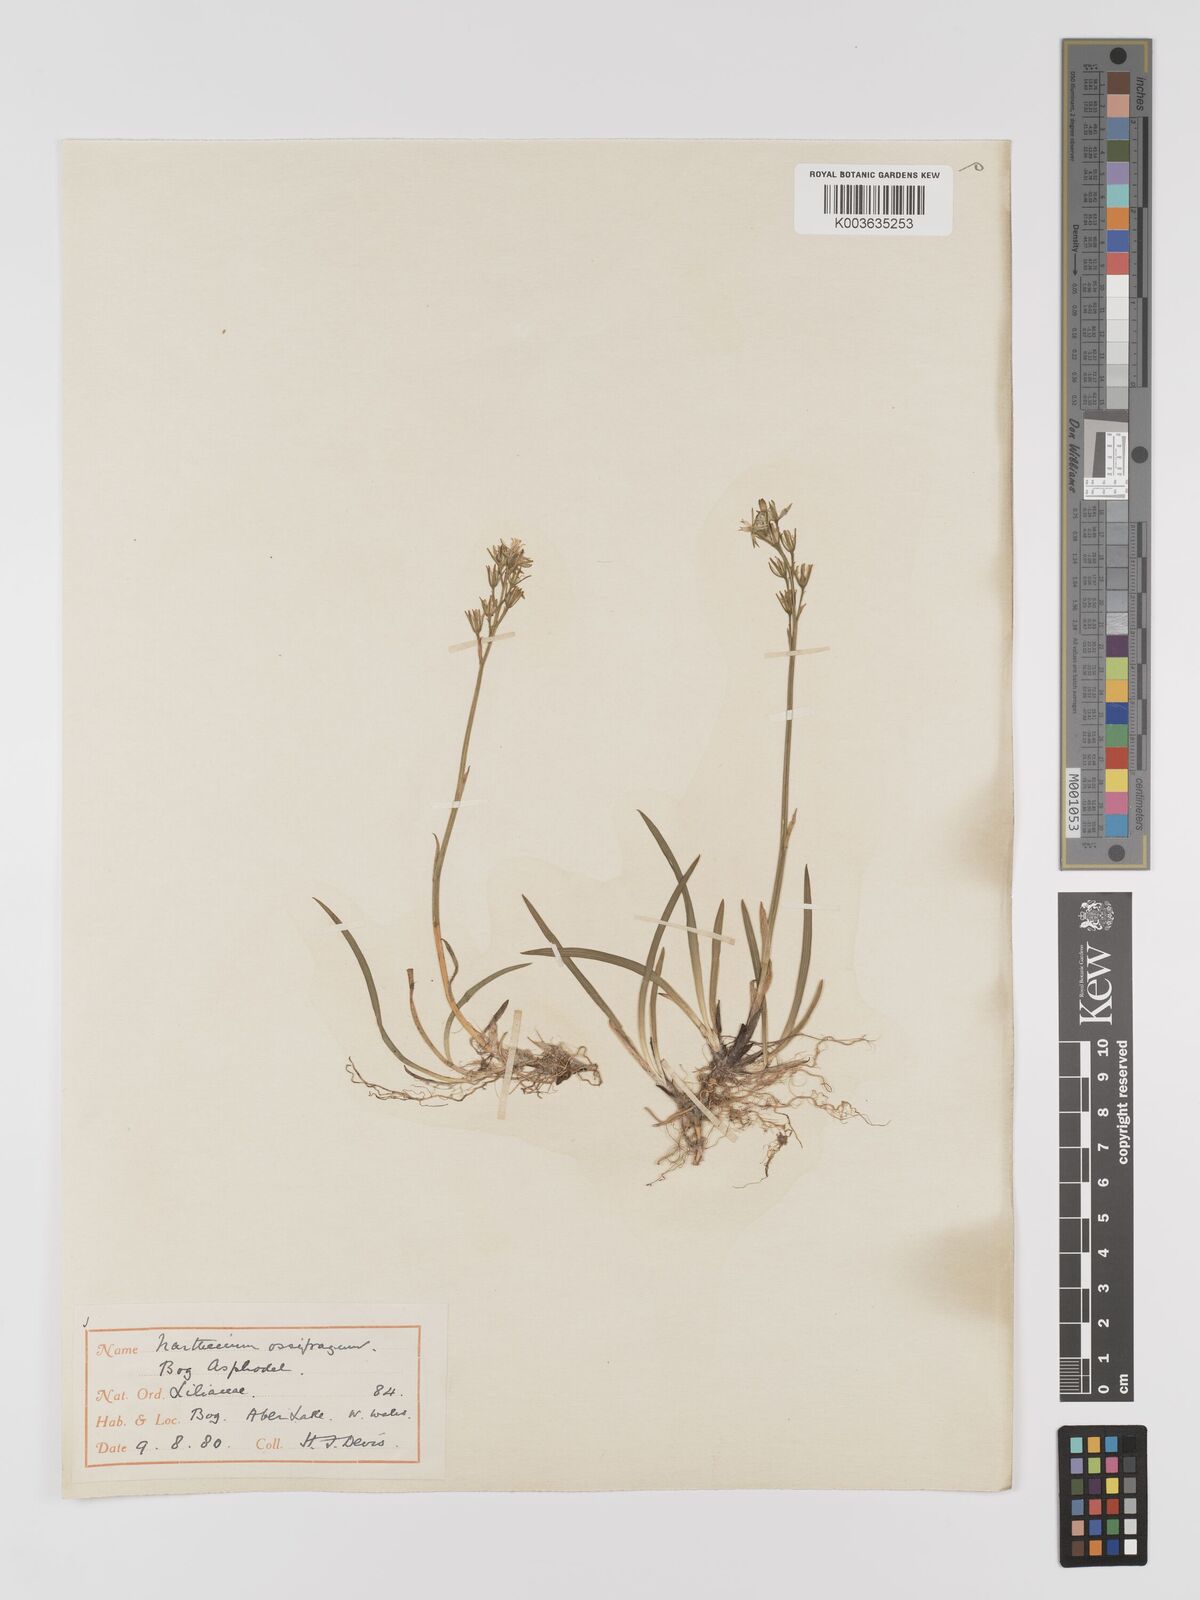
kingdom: Plantae
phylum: Tracheophyta
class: Liliopsida
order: Dioscoreales
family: Nartheciaceae
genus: Narthecium
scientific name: Narthecium
